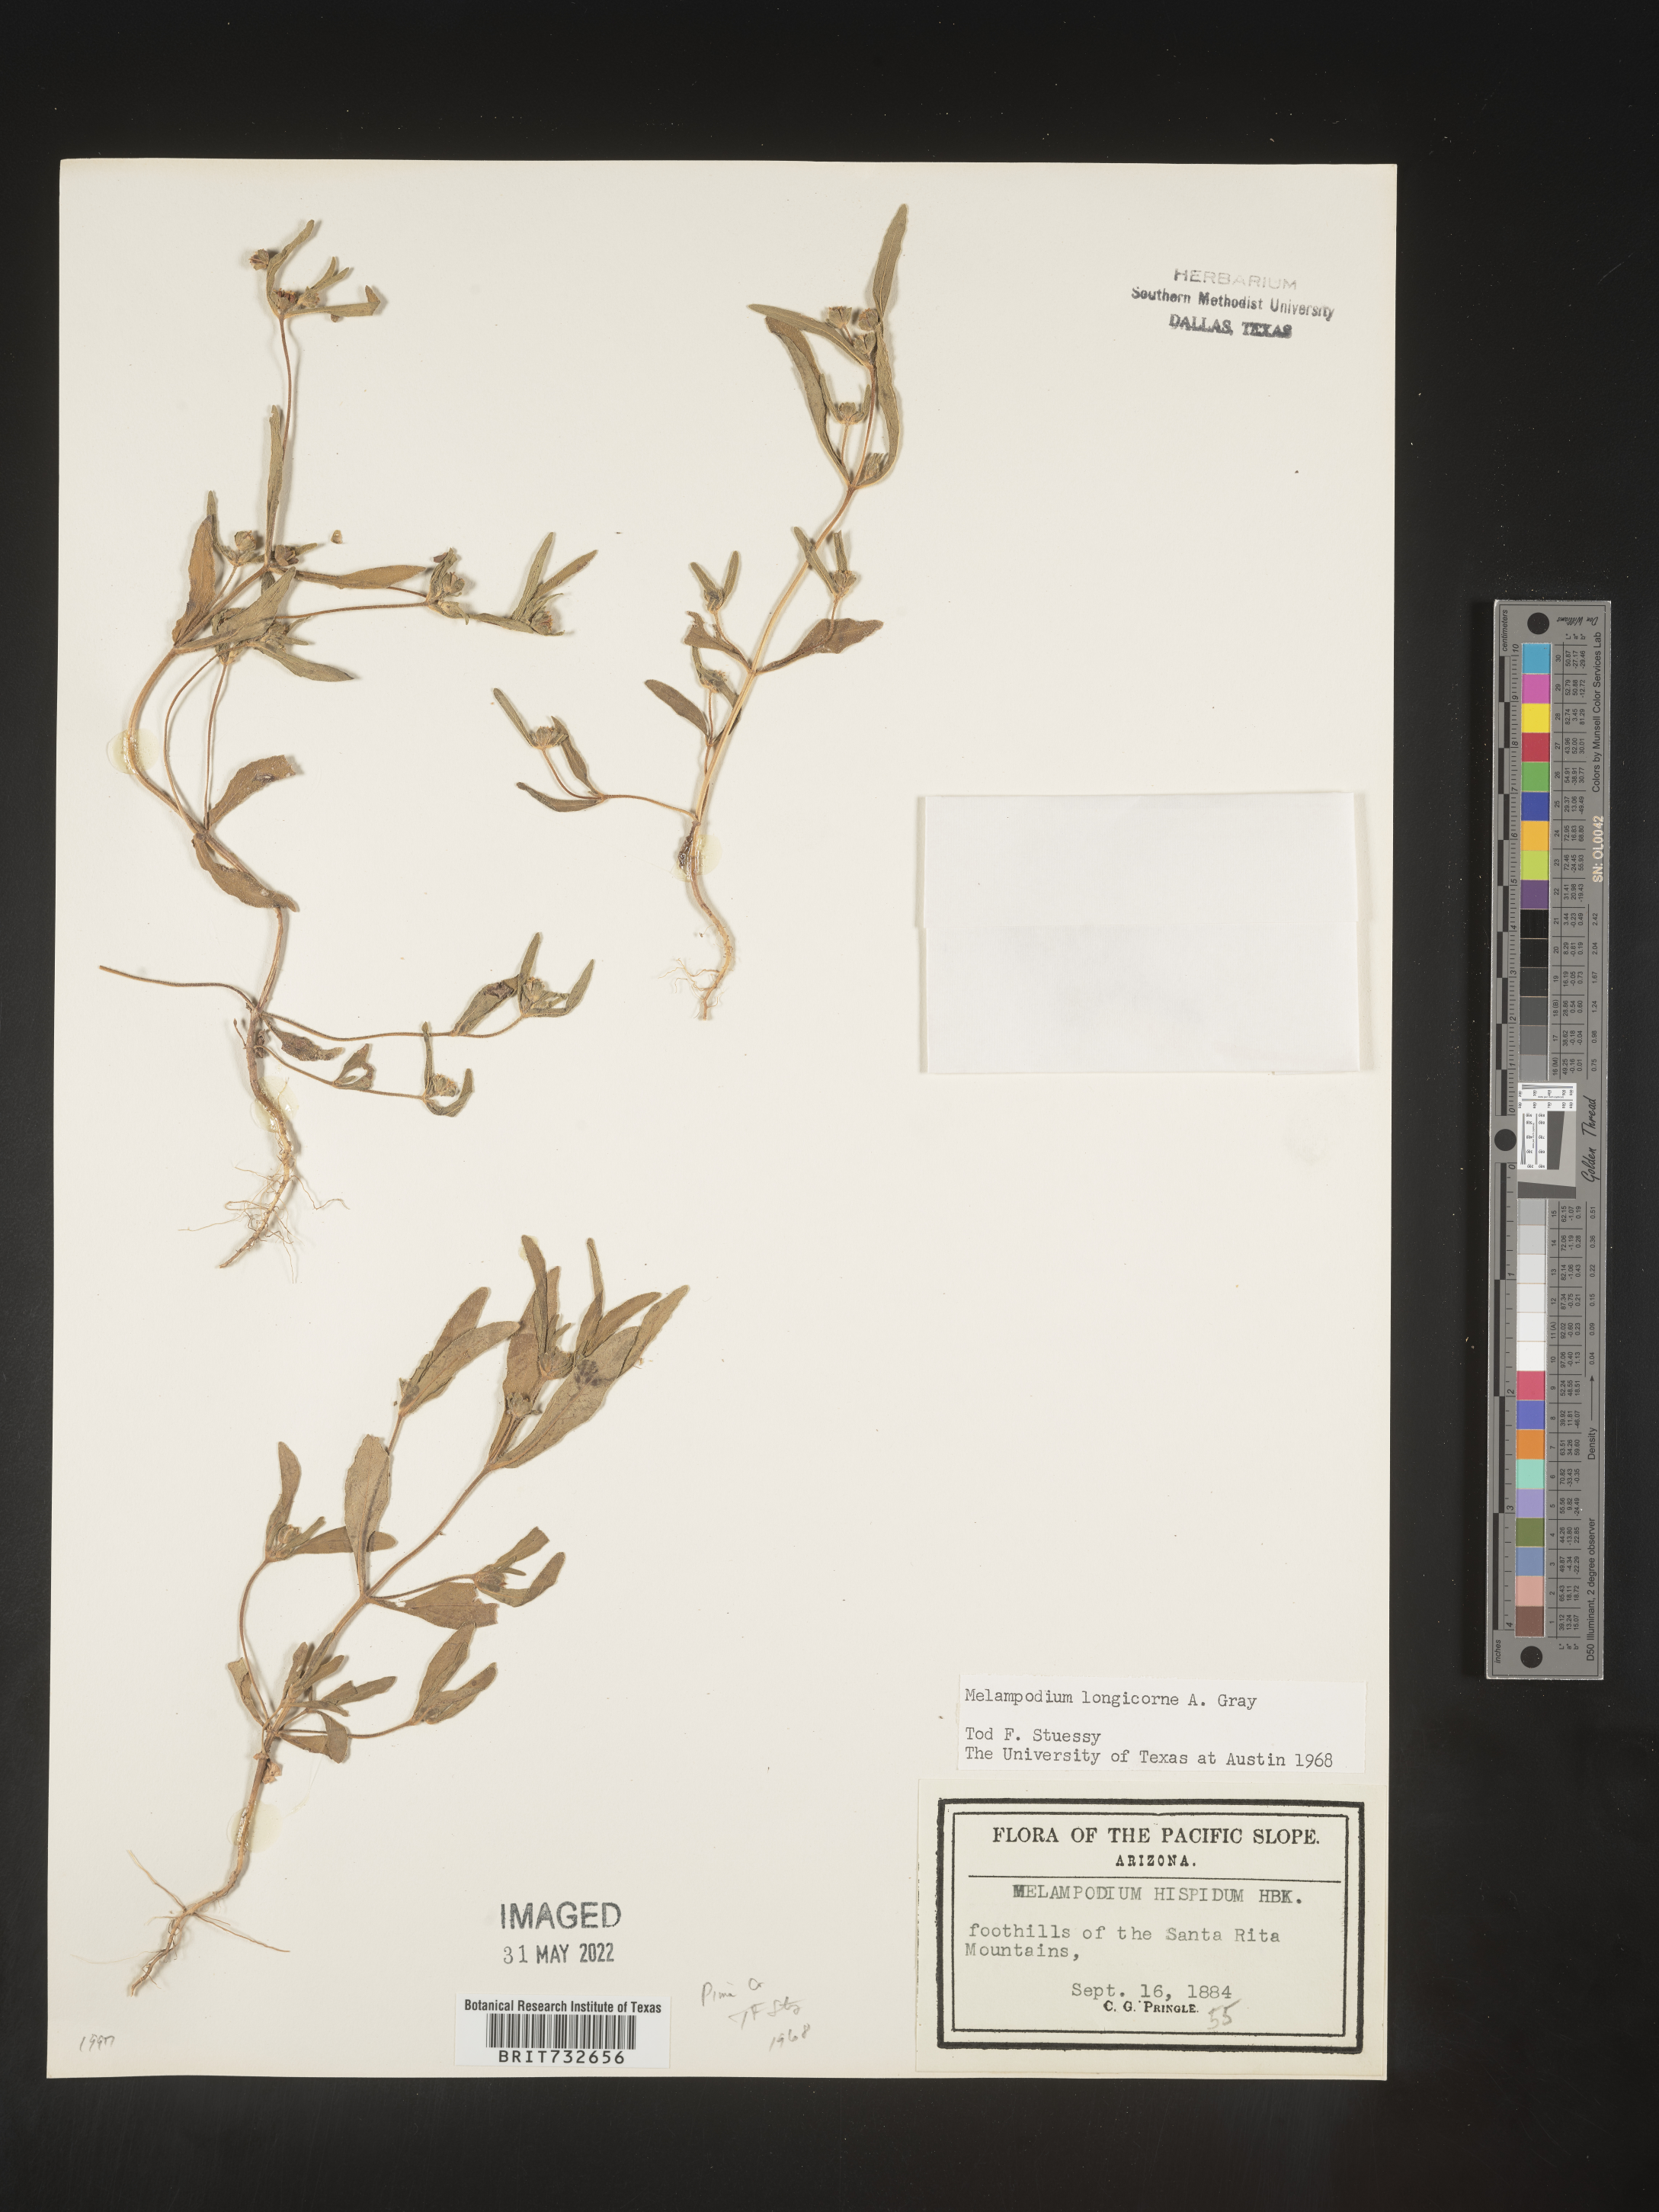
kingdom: Plantae
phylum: Tracheophyta
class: Magnoliopsida
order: Asterales
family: Asteraceae
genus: Melampodium
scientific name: Melampodium
